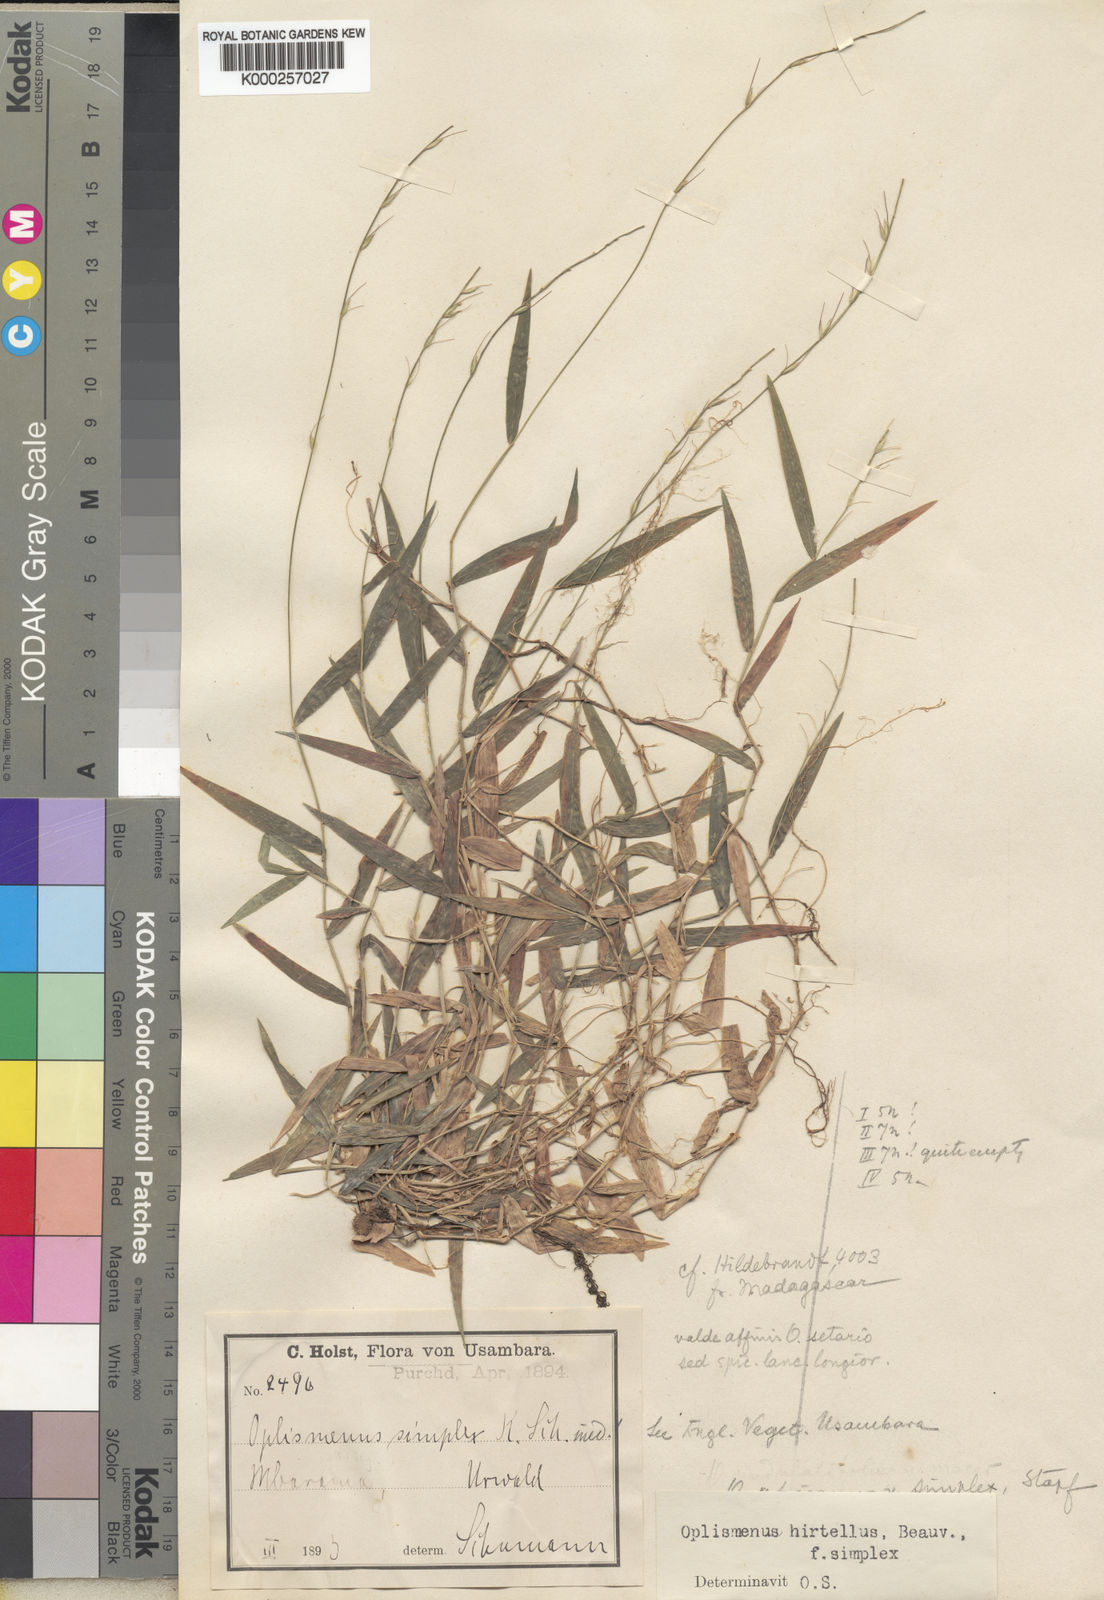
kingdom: Plantae
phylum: Tracheophyta
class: Liliopsida
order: Poales
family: Poaceae
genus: Oplismenus
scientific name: Oplismenus undulatifolius
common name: Wavyleaf basketgrass
